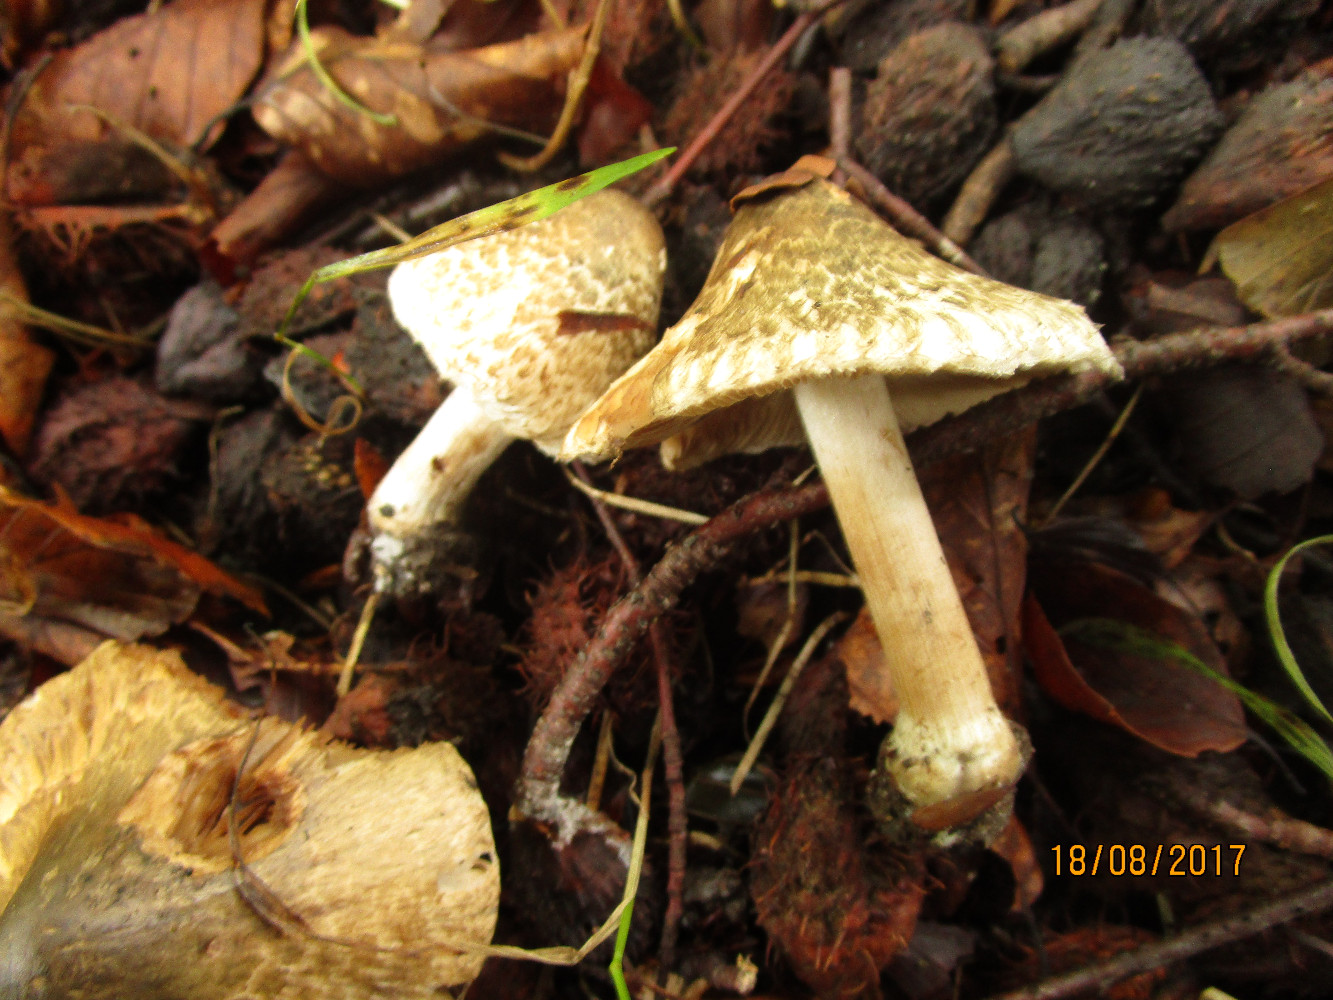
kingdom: Fungi
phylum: Basidiomycota
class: Agaricomycetes
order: Agaricales
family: Inocybaceae
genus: Inocybe
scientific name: Inocybe
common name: trævlhat
